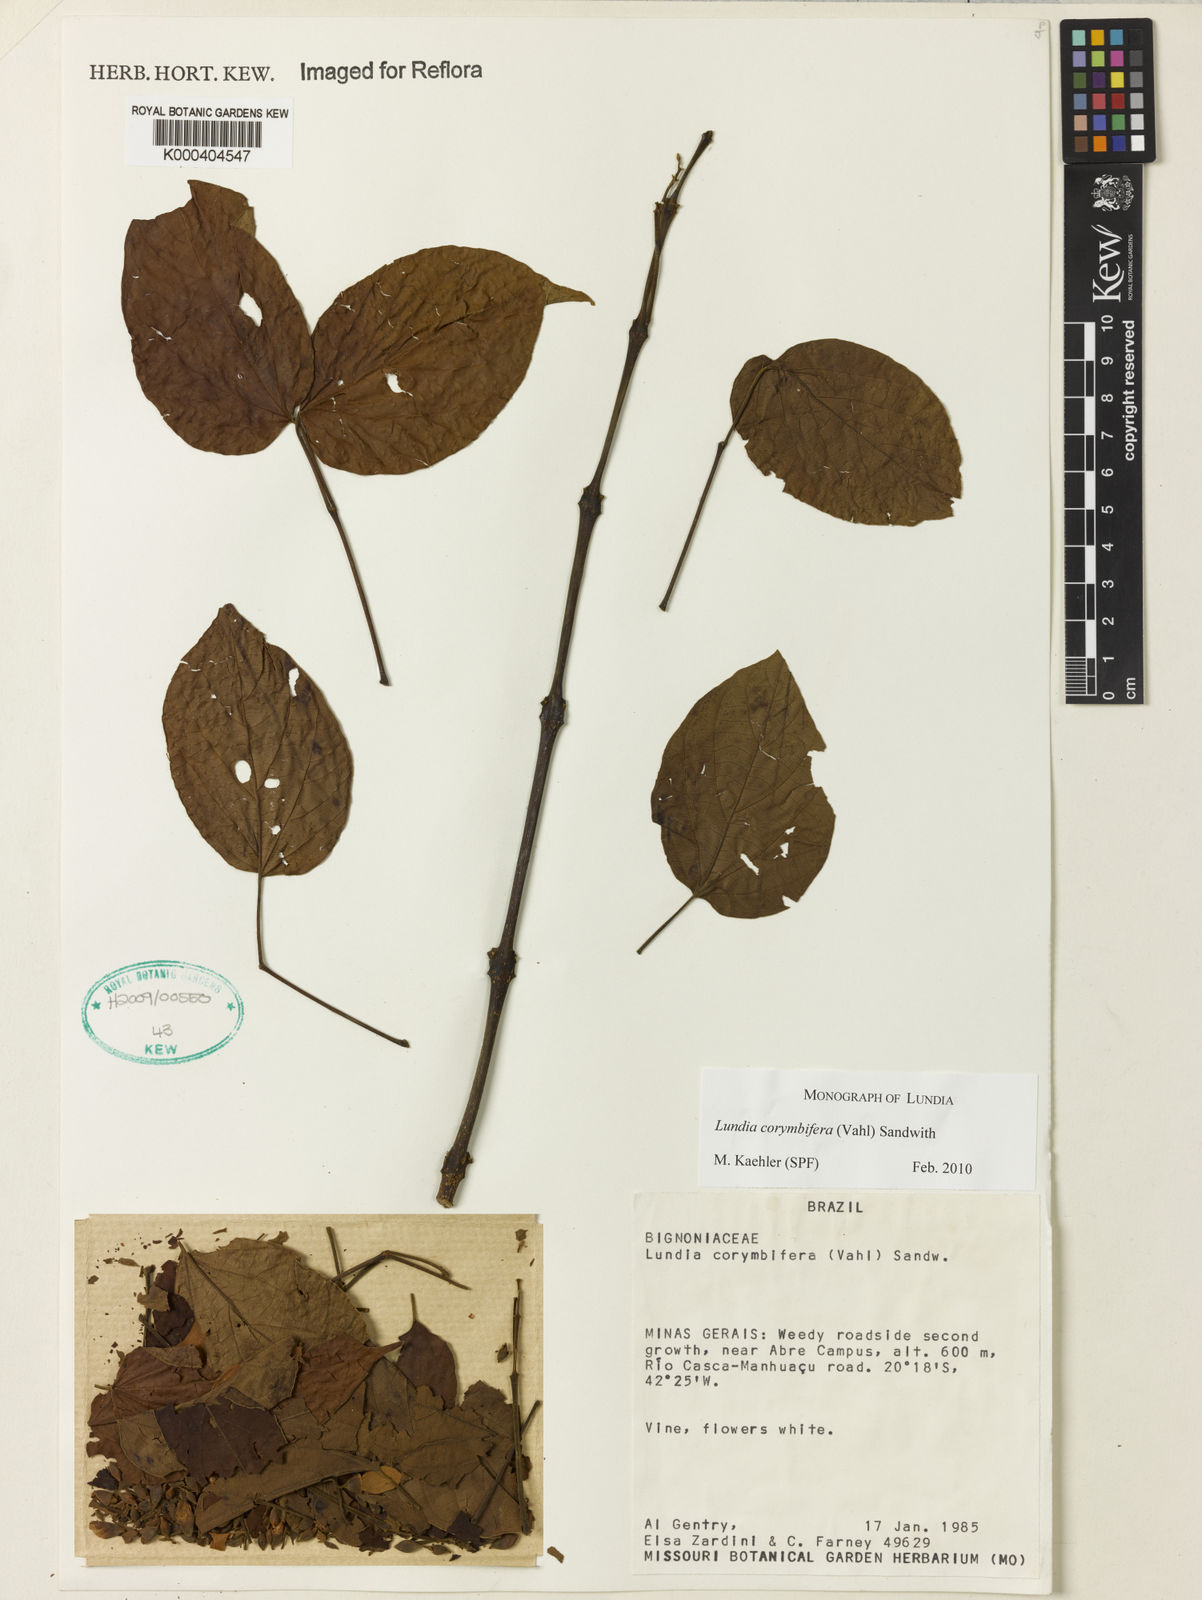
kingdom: Plantae
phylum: Tracheophyta
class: Magnoliopsida
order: Lamiales
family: Bignoniaceae
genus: Lundia
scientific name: Lundia corymbifera
